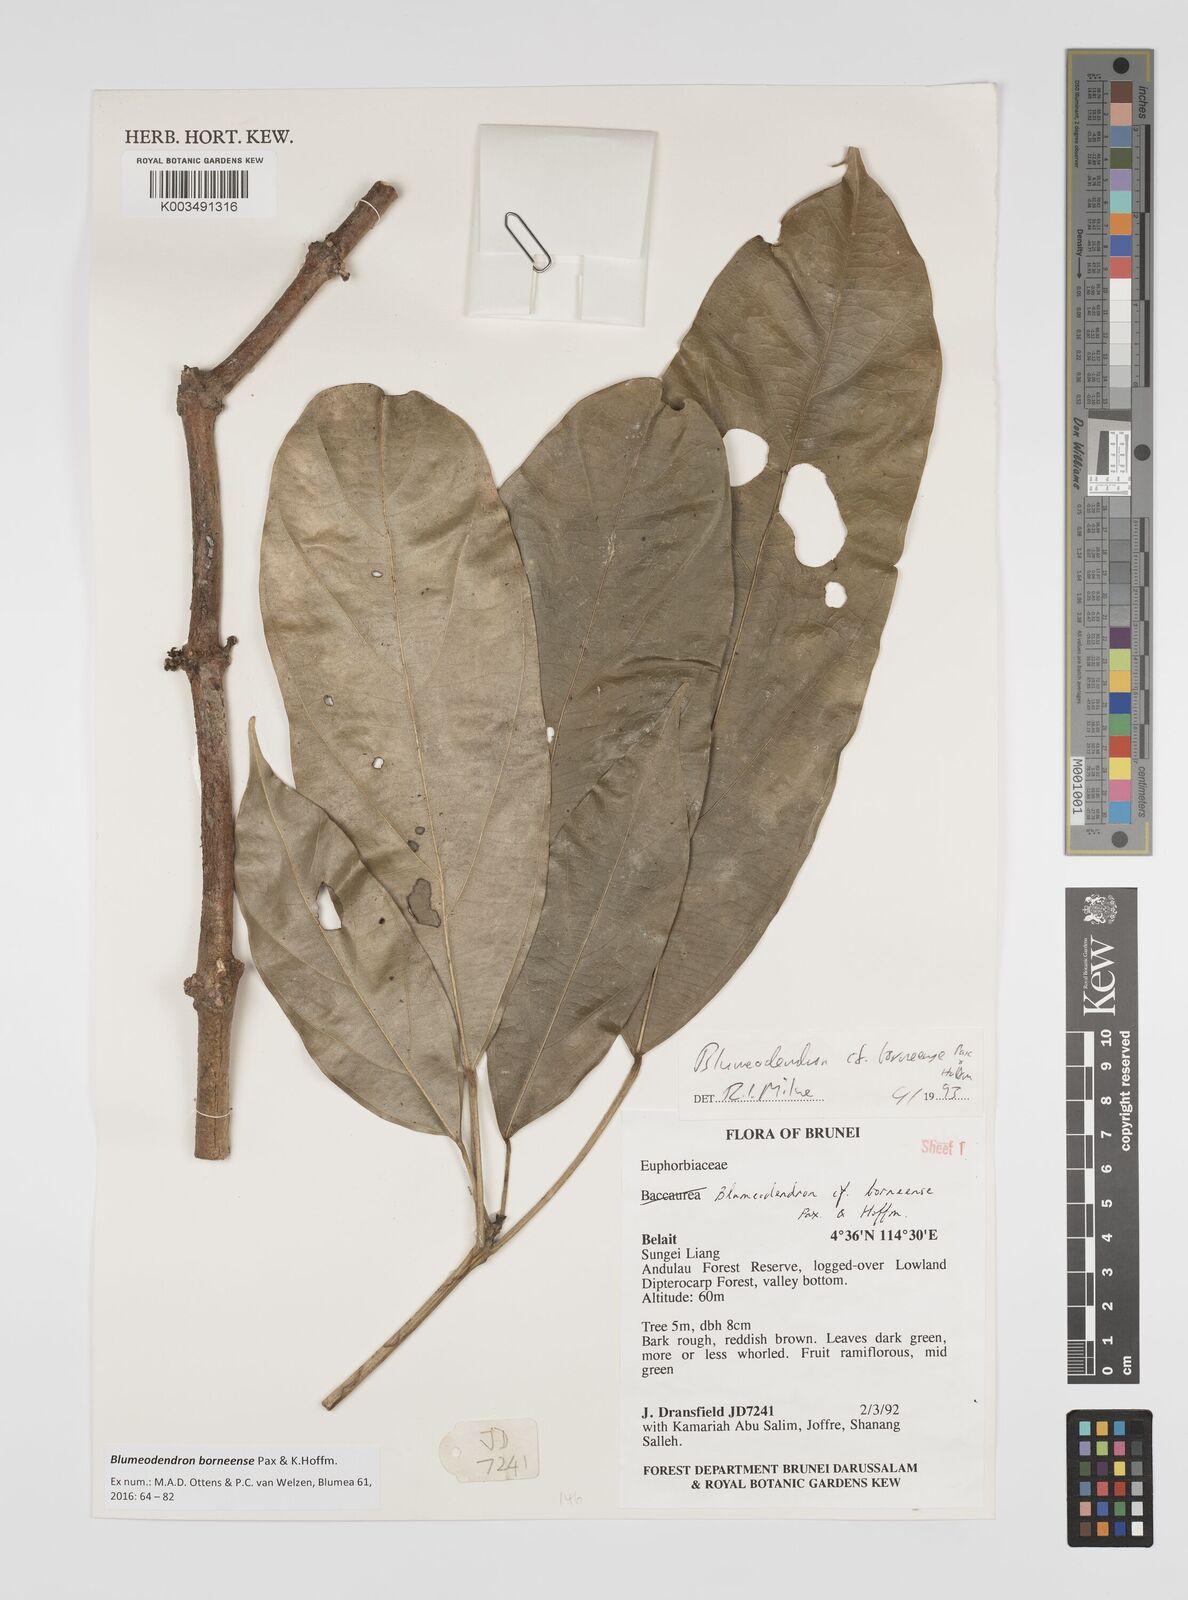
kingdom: Plantae
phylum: Tracheophyta
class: Magnoliopsida
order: Malpighiales
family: Euphorbiaceae
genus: Blumeodendron
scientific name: Blumeodendron borneense
